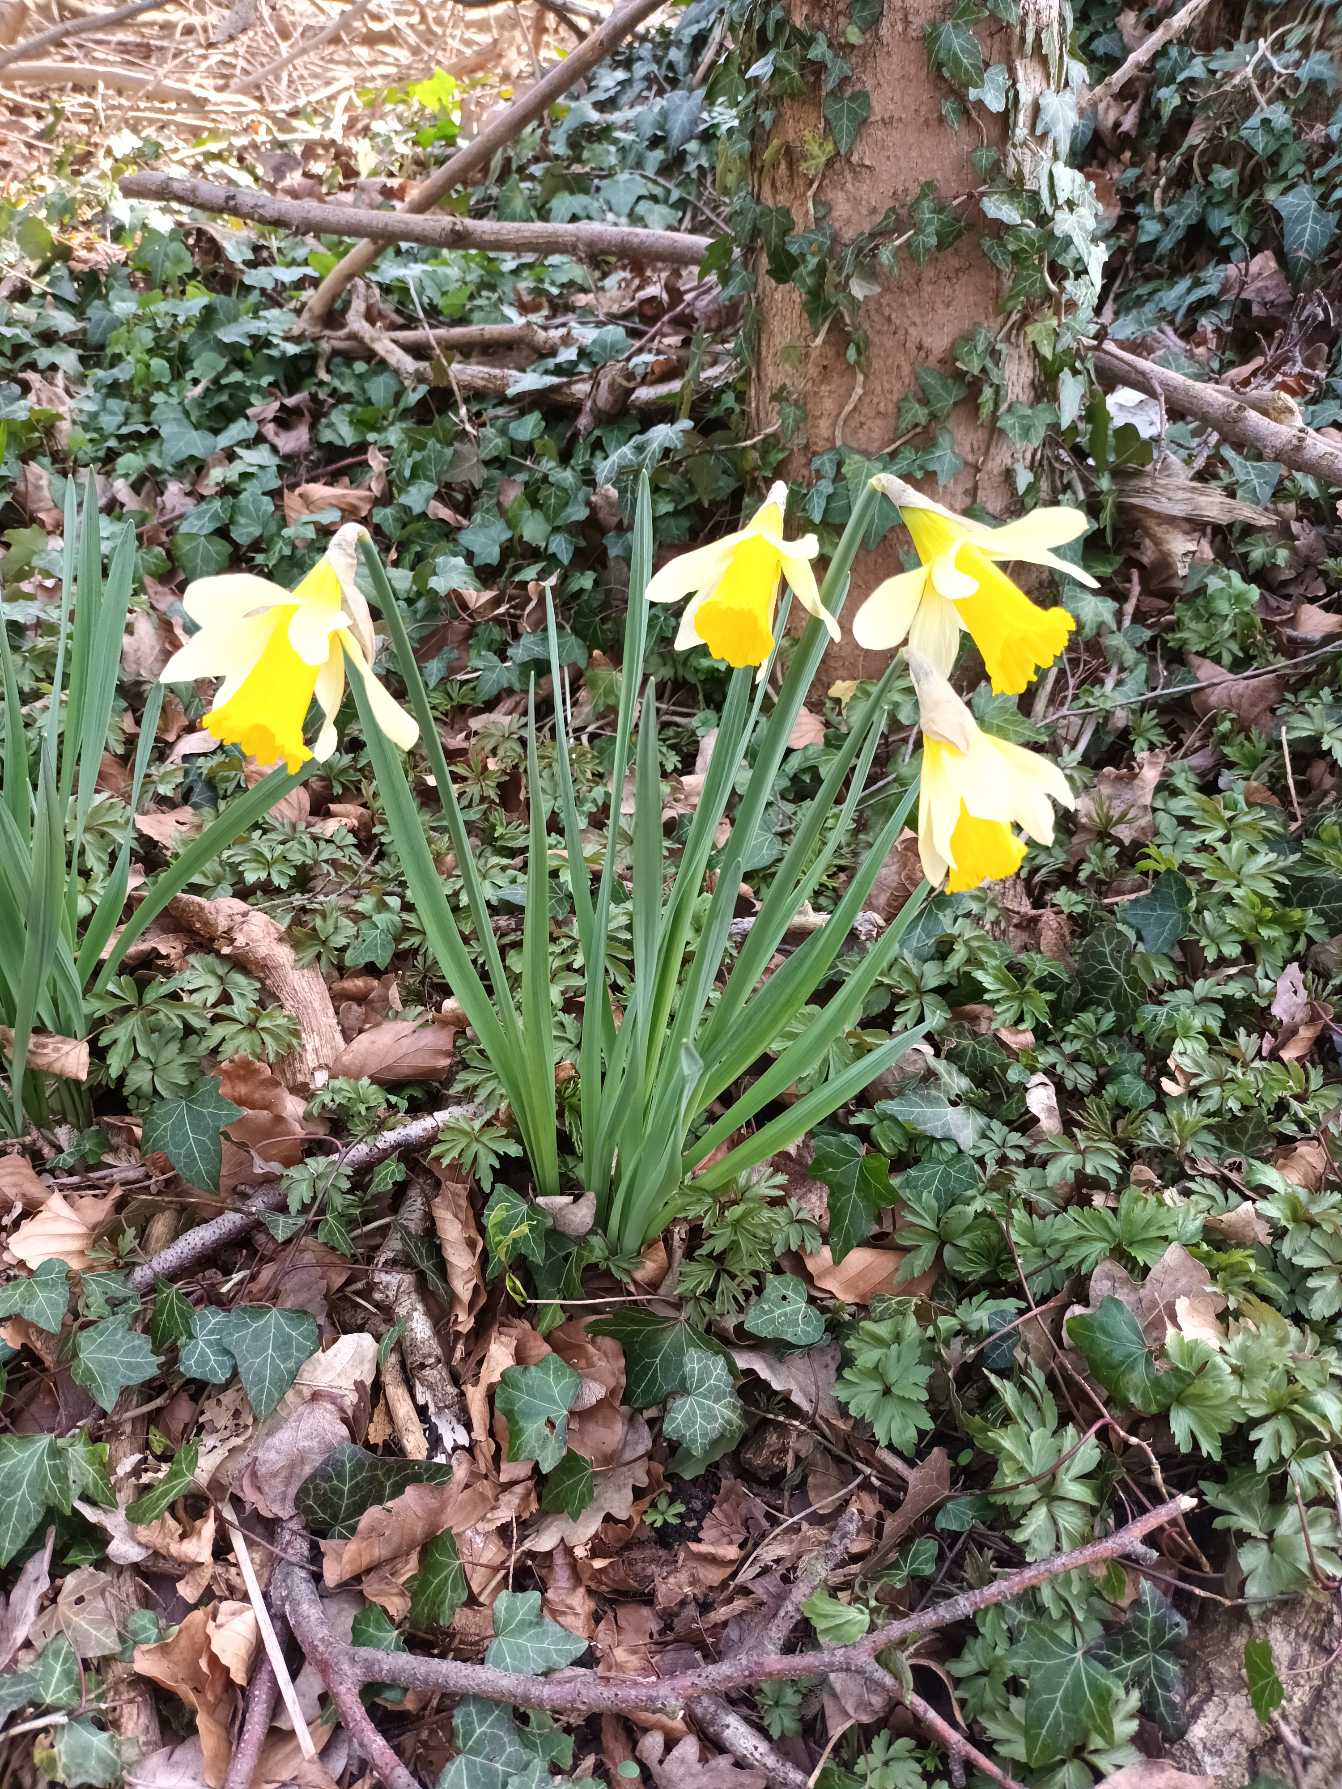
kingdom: Plantae
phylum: Tracheophyta
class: Liliopsida
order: Asparagales
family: Amaryllidaceae
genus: Narcissus
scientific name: Narcissus pseudonarcissus
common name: Påskelilje
